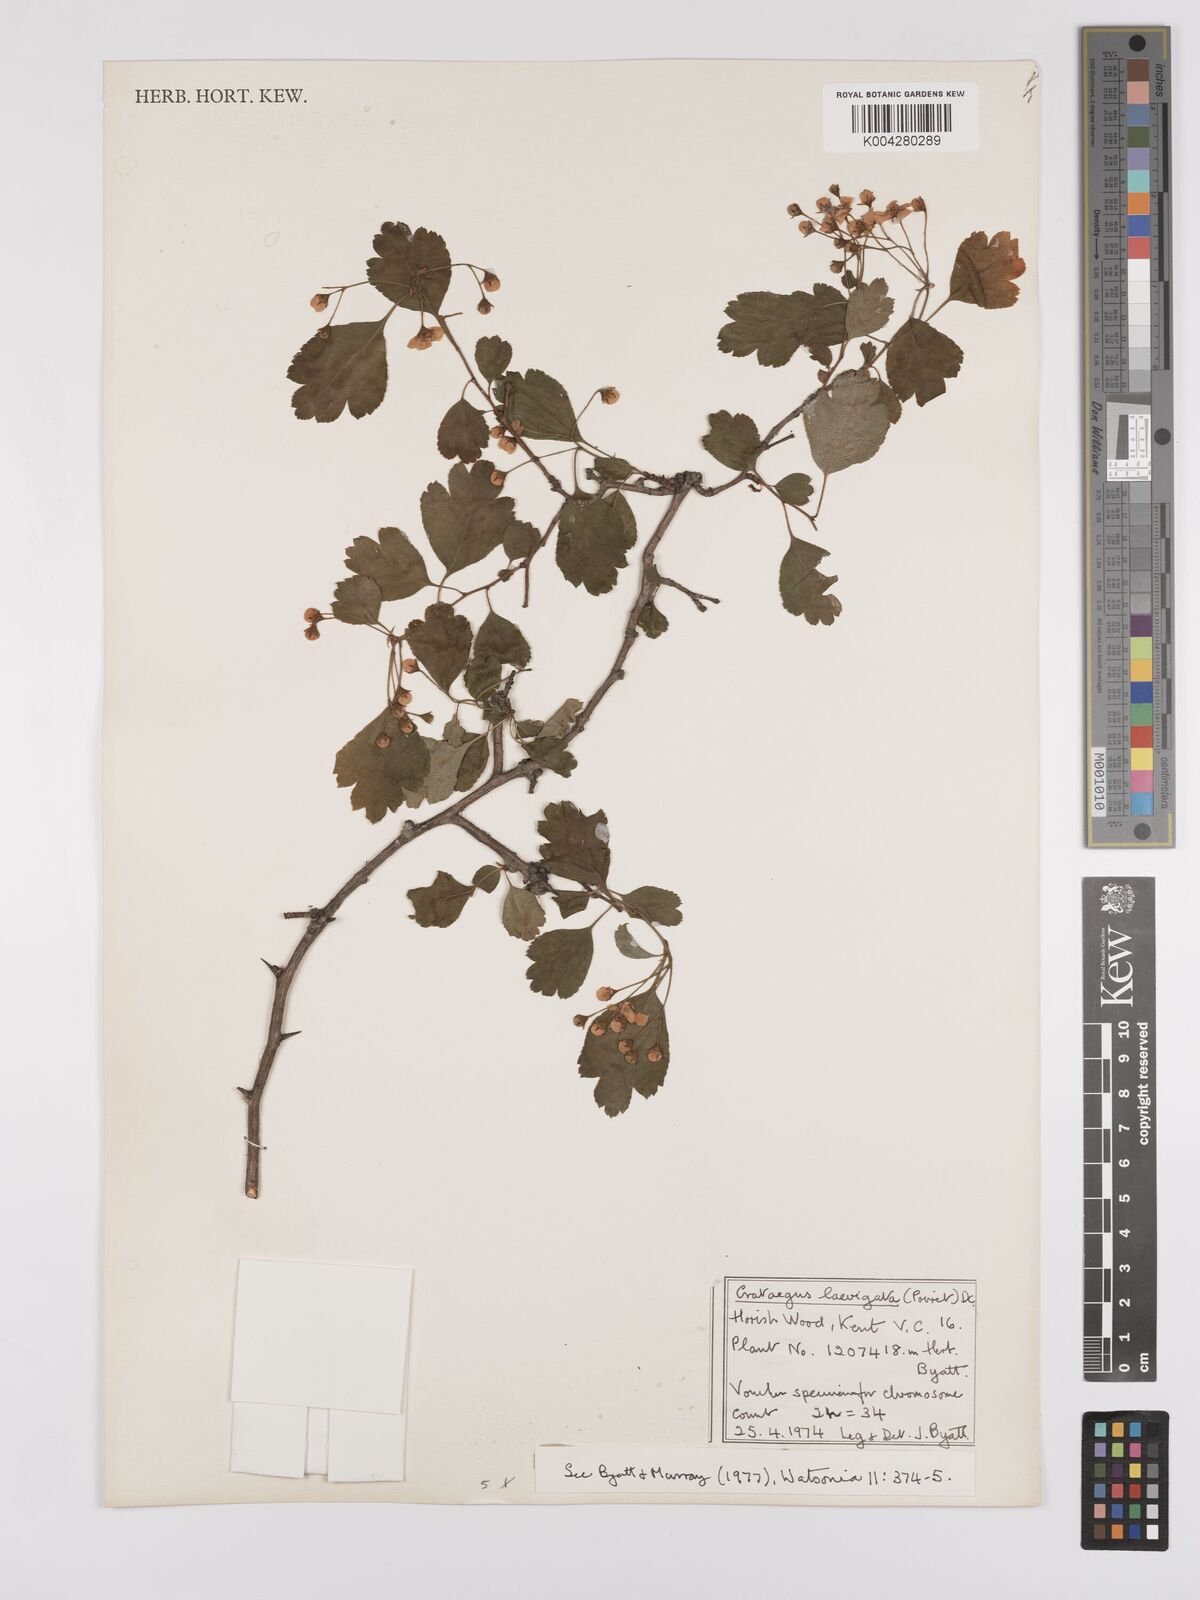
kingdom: Plantae
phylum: Tracheophyta
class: Magnoliopsida
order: Rosales
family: Rosaceae
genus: Crataegus
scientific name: Crataegus laevigata
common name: Midland hawthorn
